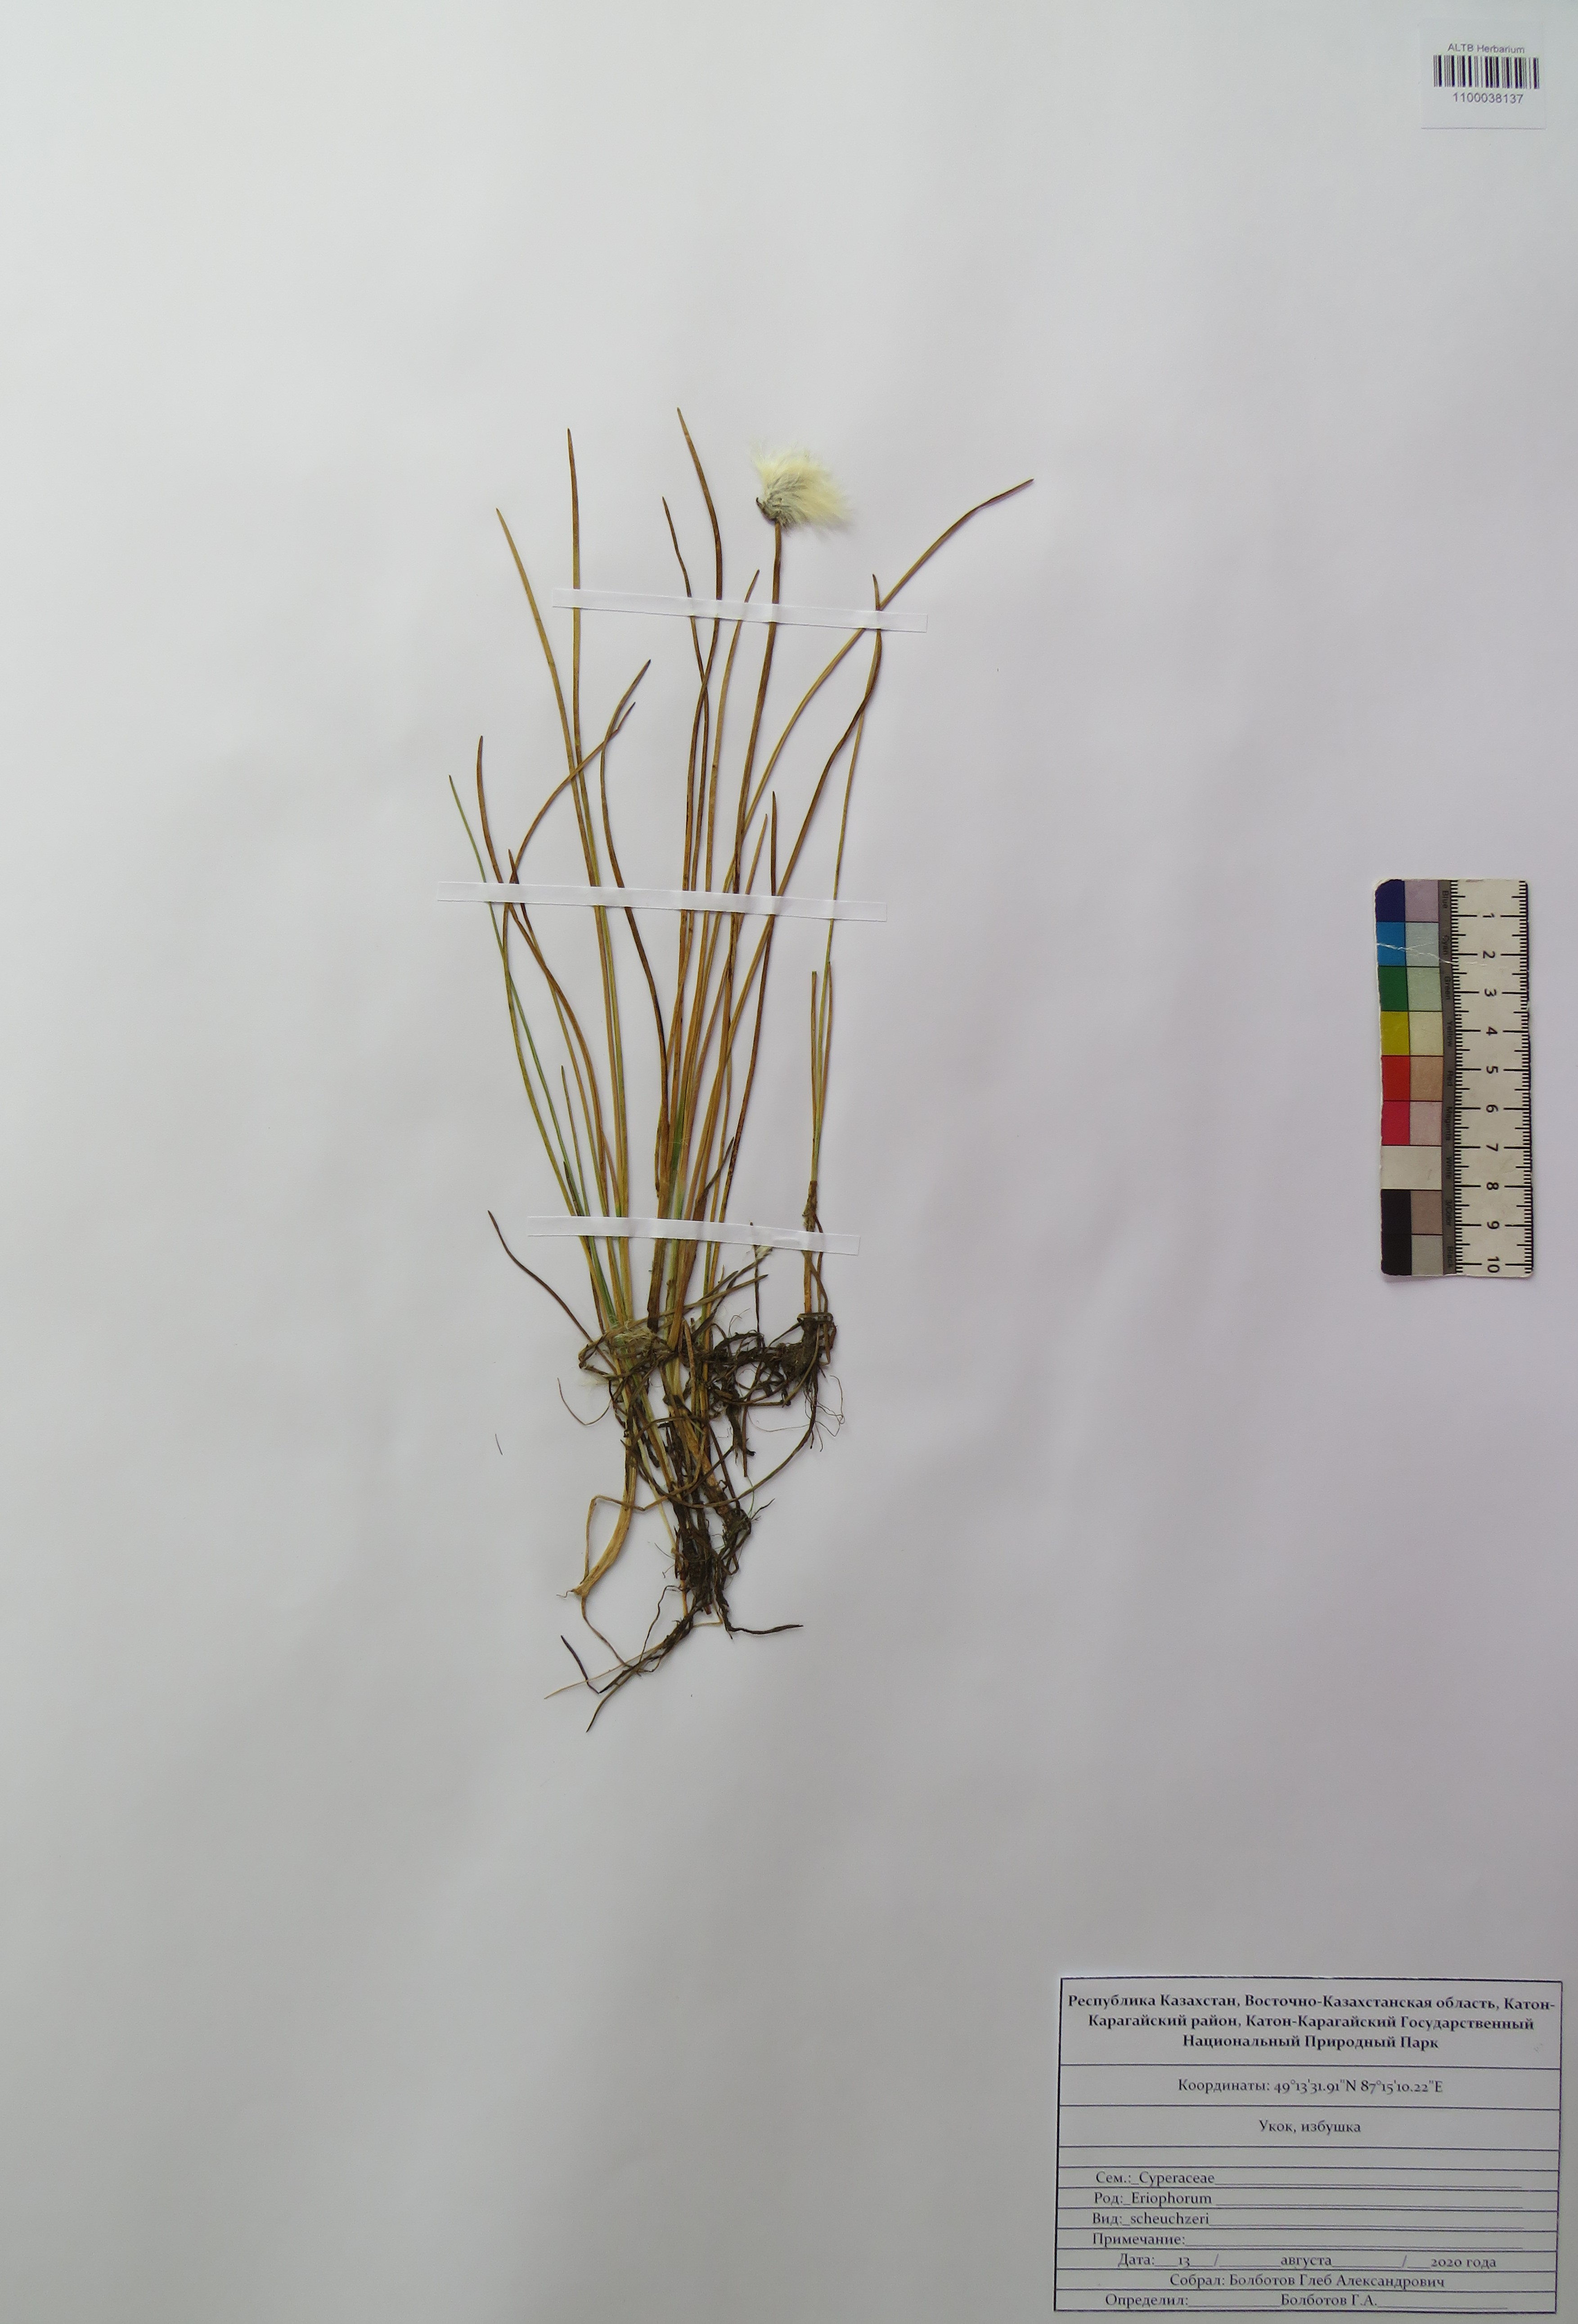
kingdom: Plantae
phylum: Tracheophyta
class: Liliopsida
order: Poales
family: Cyperaceae
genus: Eriophorum
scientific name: Eriophorum scheuchzeri
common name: Scheuchzer's cottongrass
